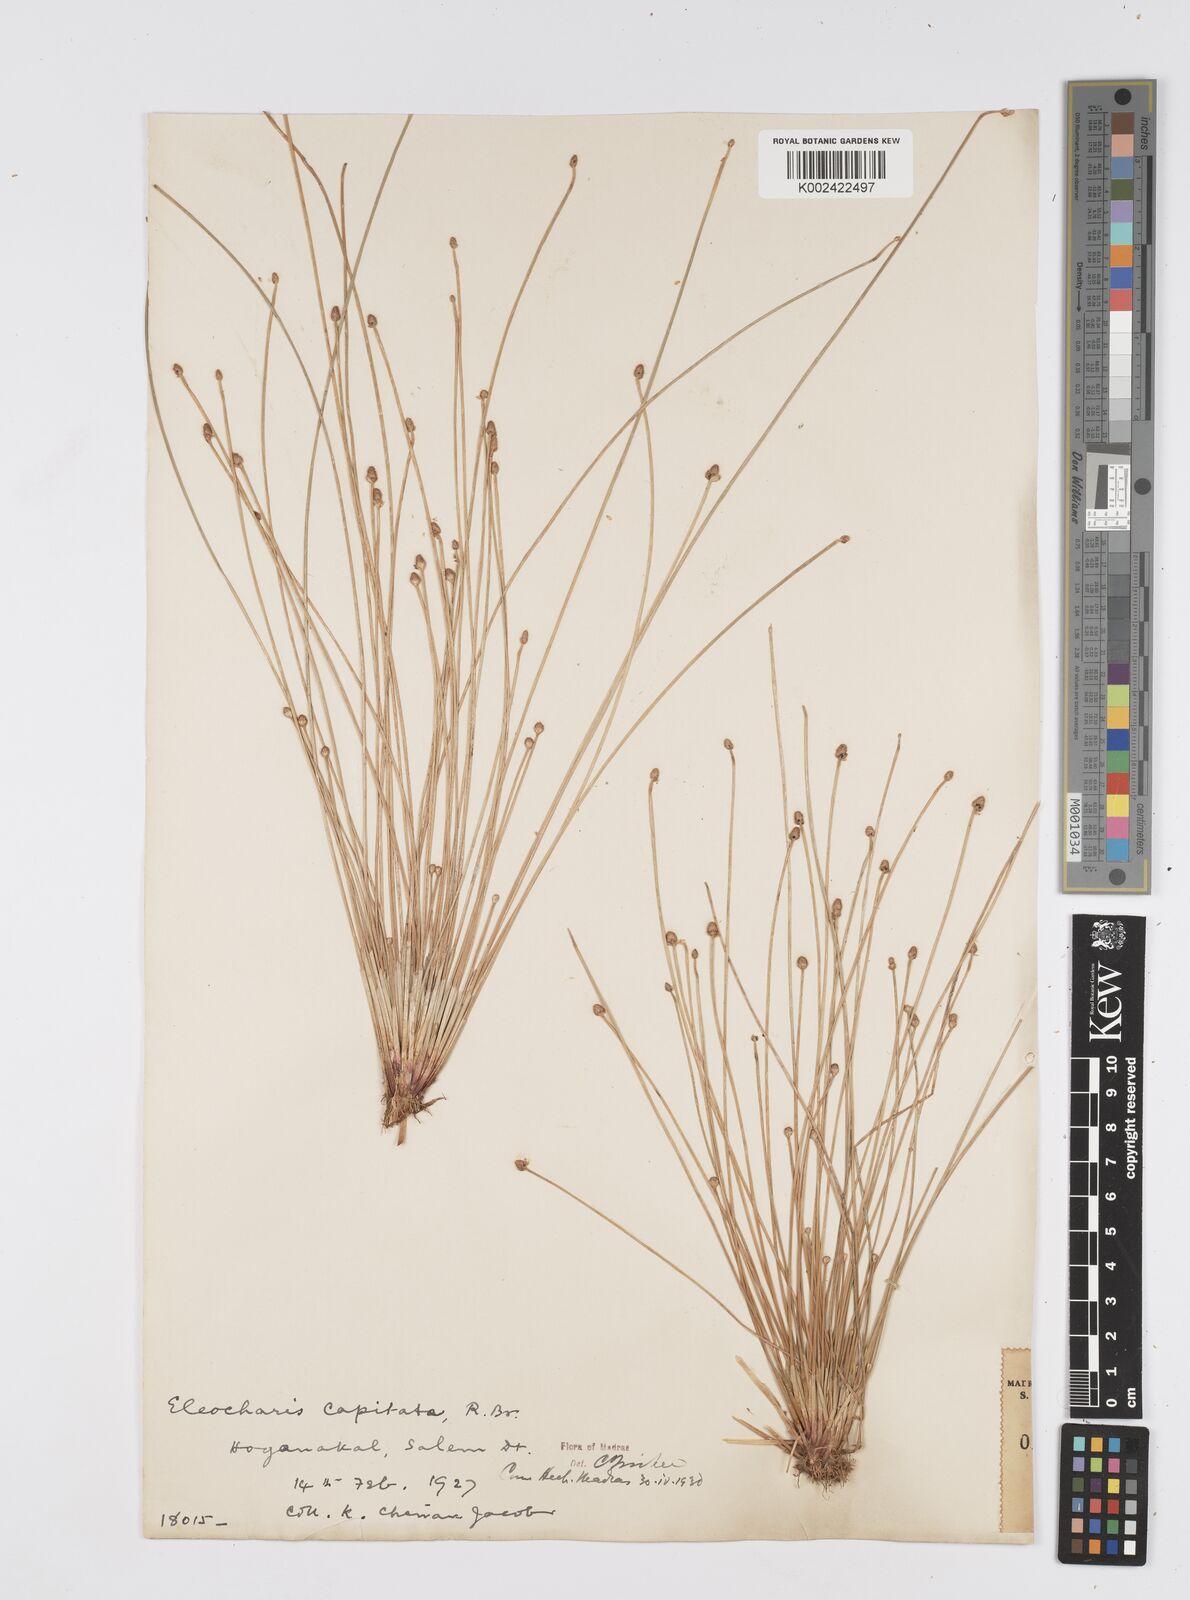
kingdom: Plantae
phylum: Tracheophyta
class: Liliopsida
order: Poales
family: Cyperaceae
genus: Eleocharis
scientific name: Eleocharis geniculata
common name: Canada spikesedge
